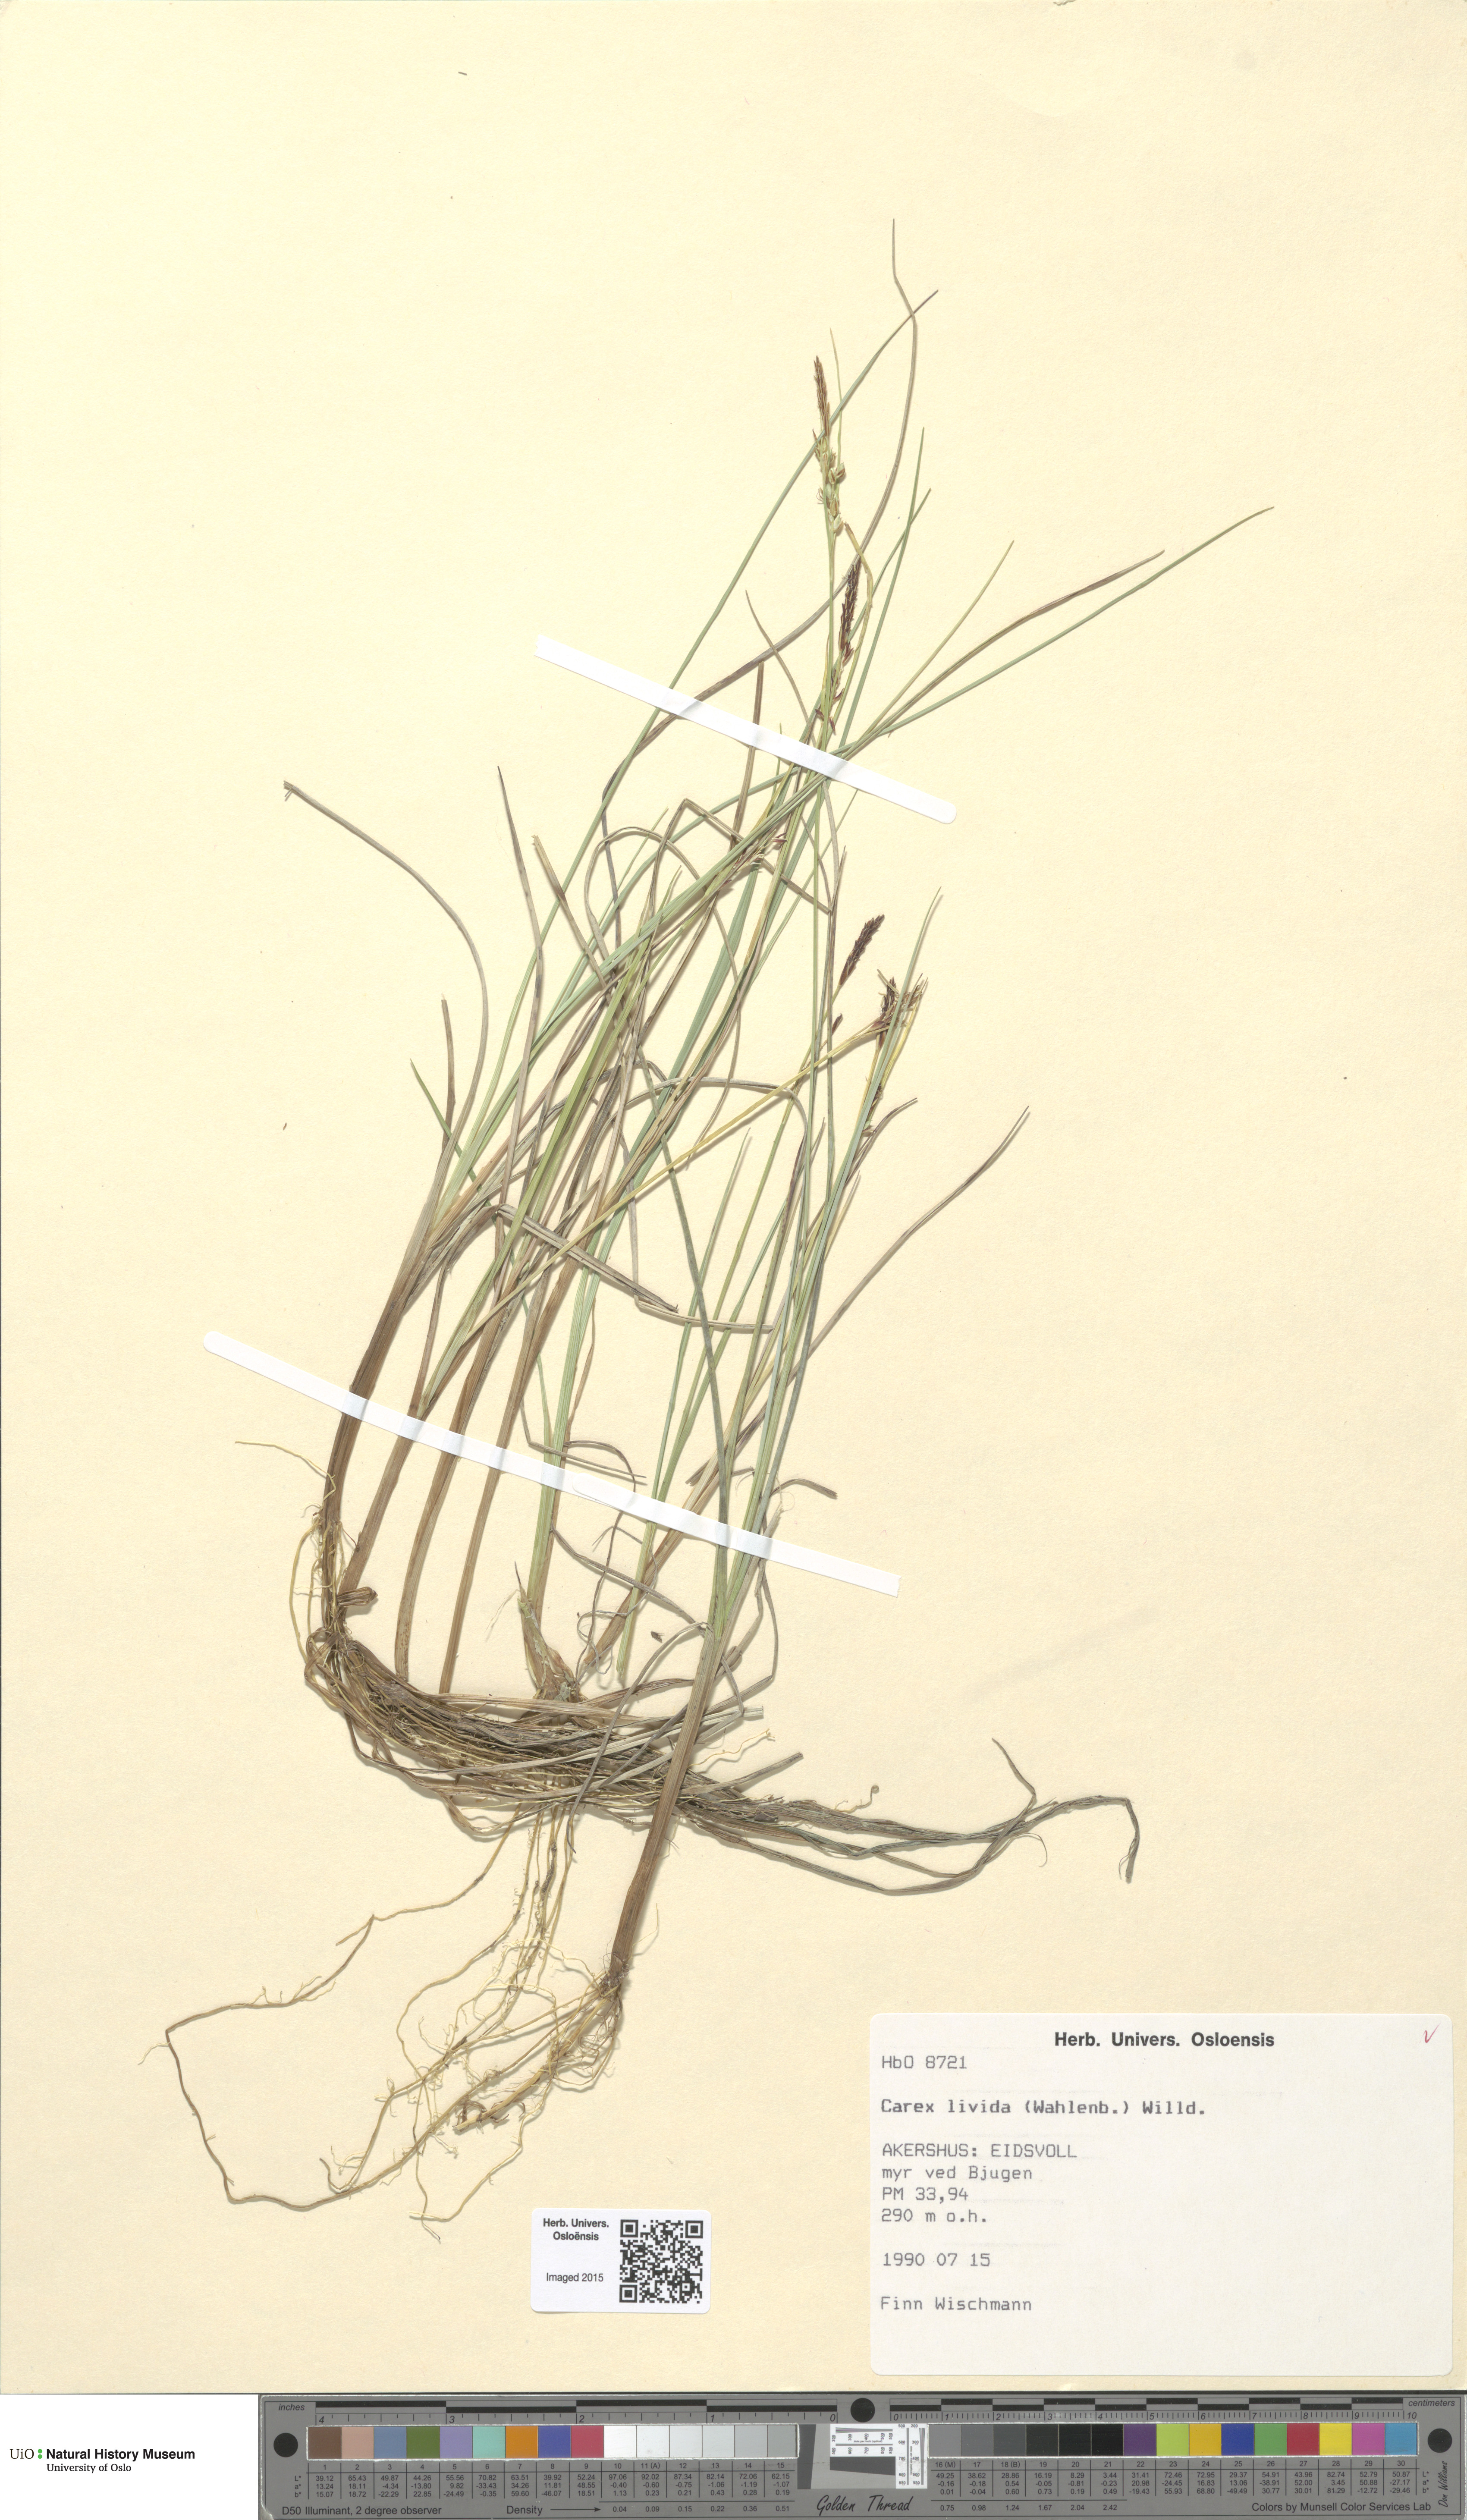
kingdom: Plantae
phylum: Tracheophyta
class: Liliopsida
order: Poales
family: Cyperaceae
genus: Carex
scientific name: Carex livida
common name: Livid sedge
